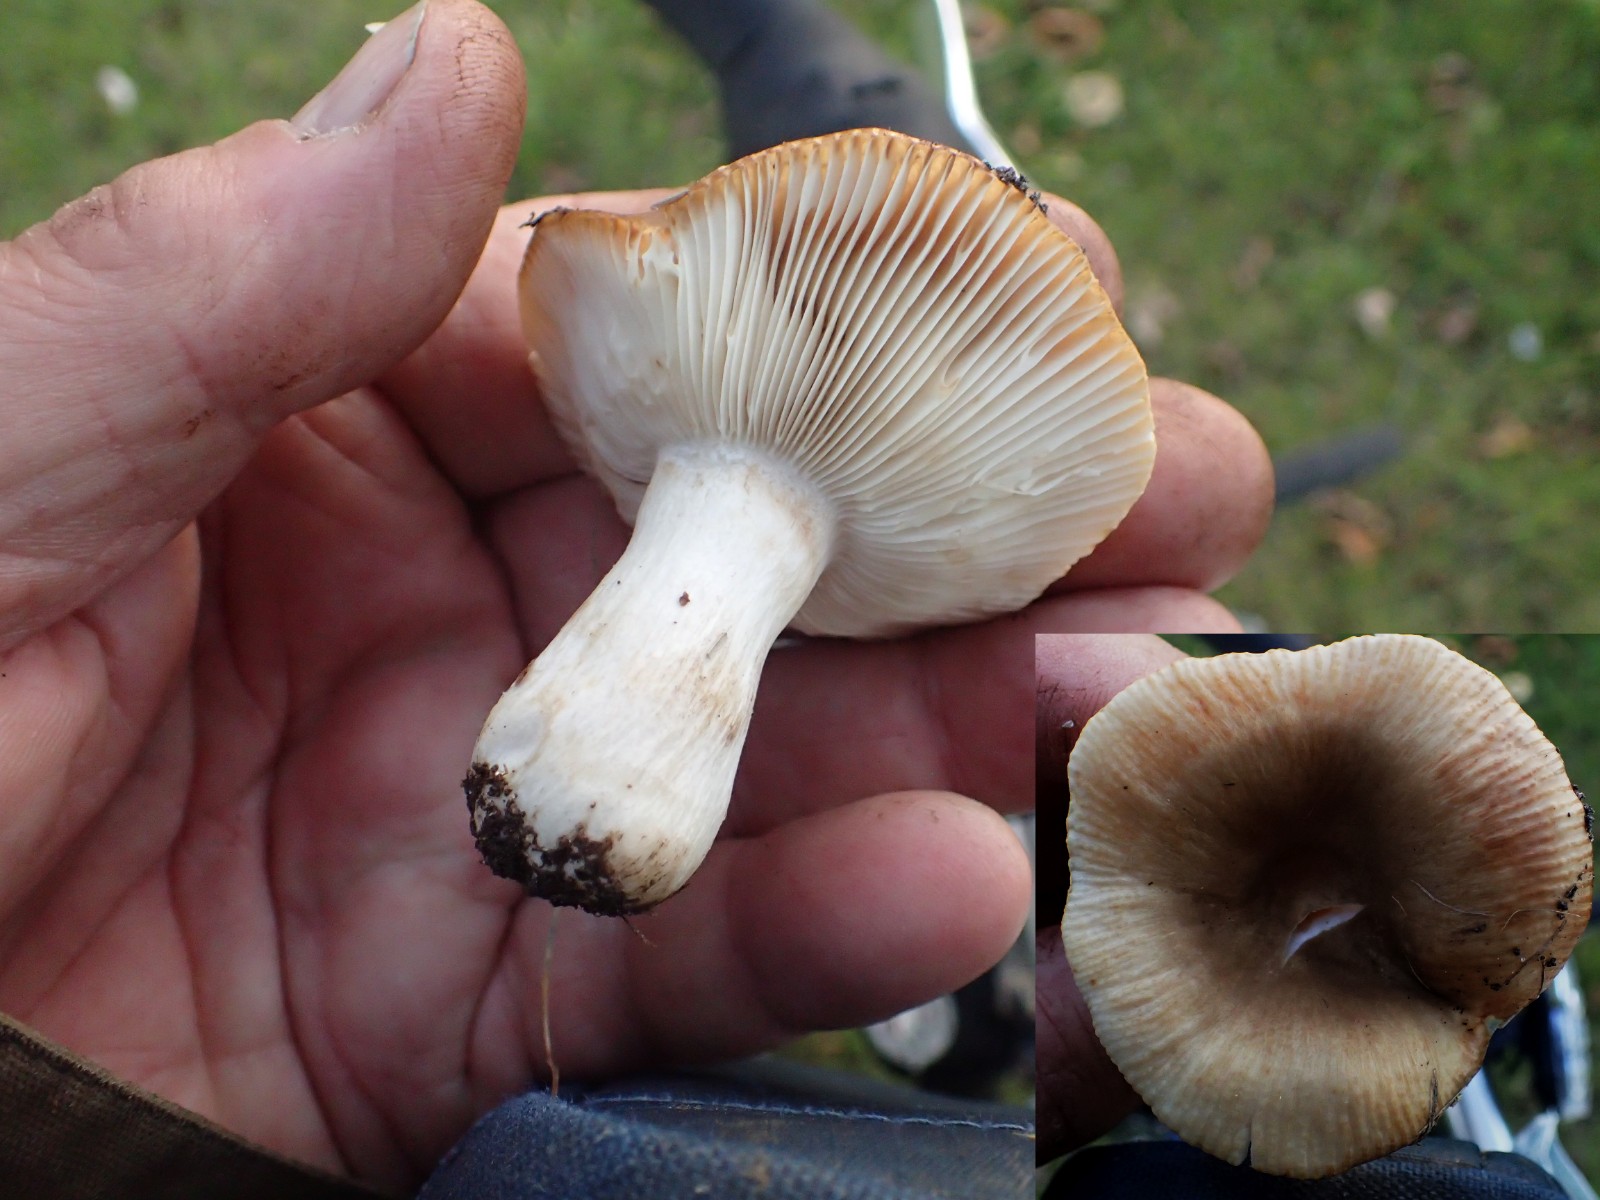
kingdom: Fungi
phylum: Basidiomycota
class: Agaricomycetes
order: Russulales
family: Russulaceae
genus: Russula
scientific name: Russula recondita
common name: mild kam-skørhat
